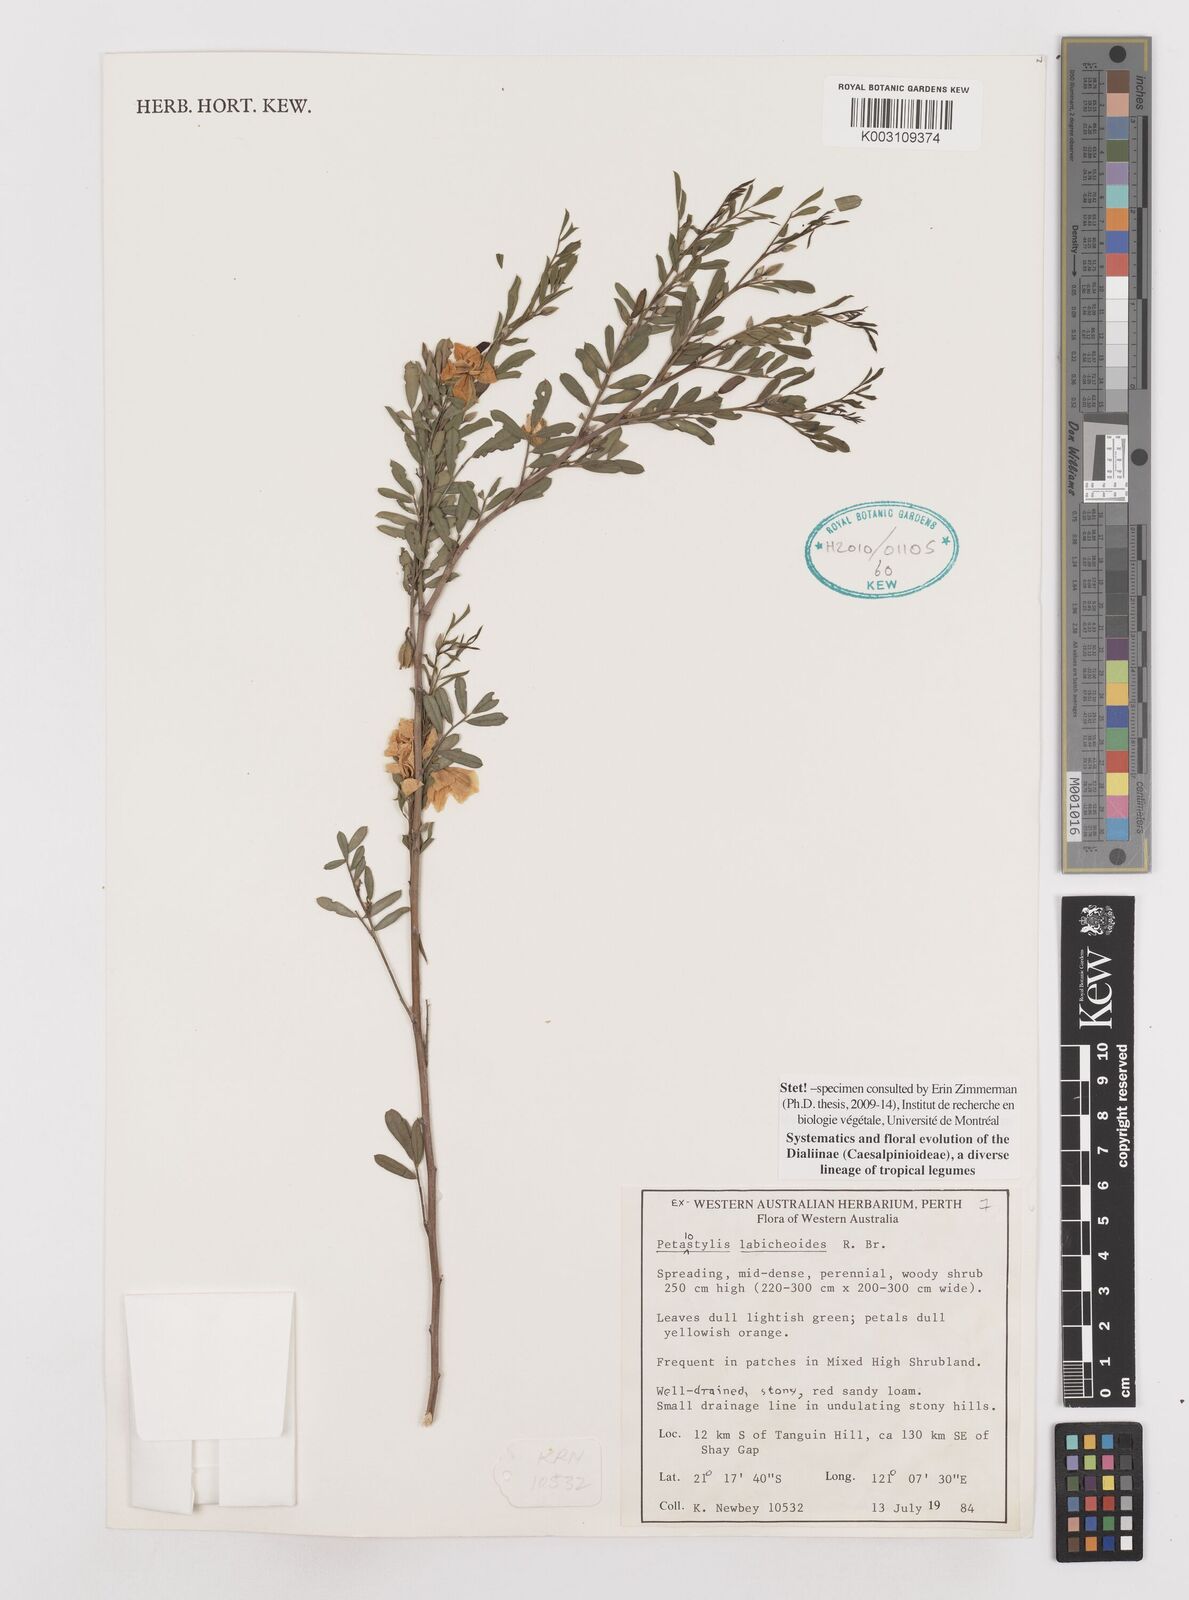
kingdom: Plantae
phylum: Tracheophyta
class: Magnoliopsida
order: Fabales
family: Fabaceae
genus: Petalostylis
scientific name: Petalostylis labicheoides
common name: Butterfly bush
